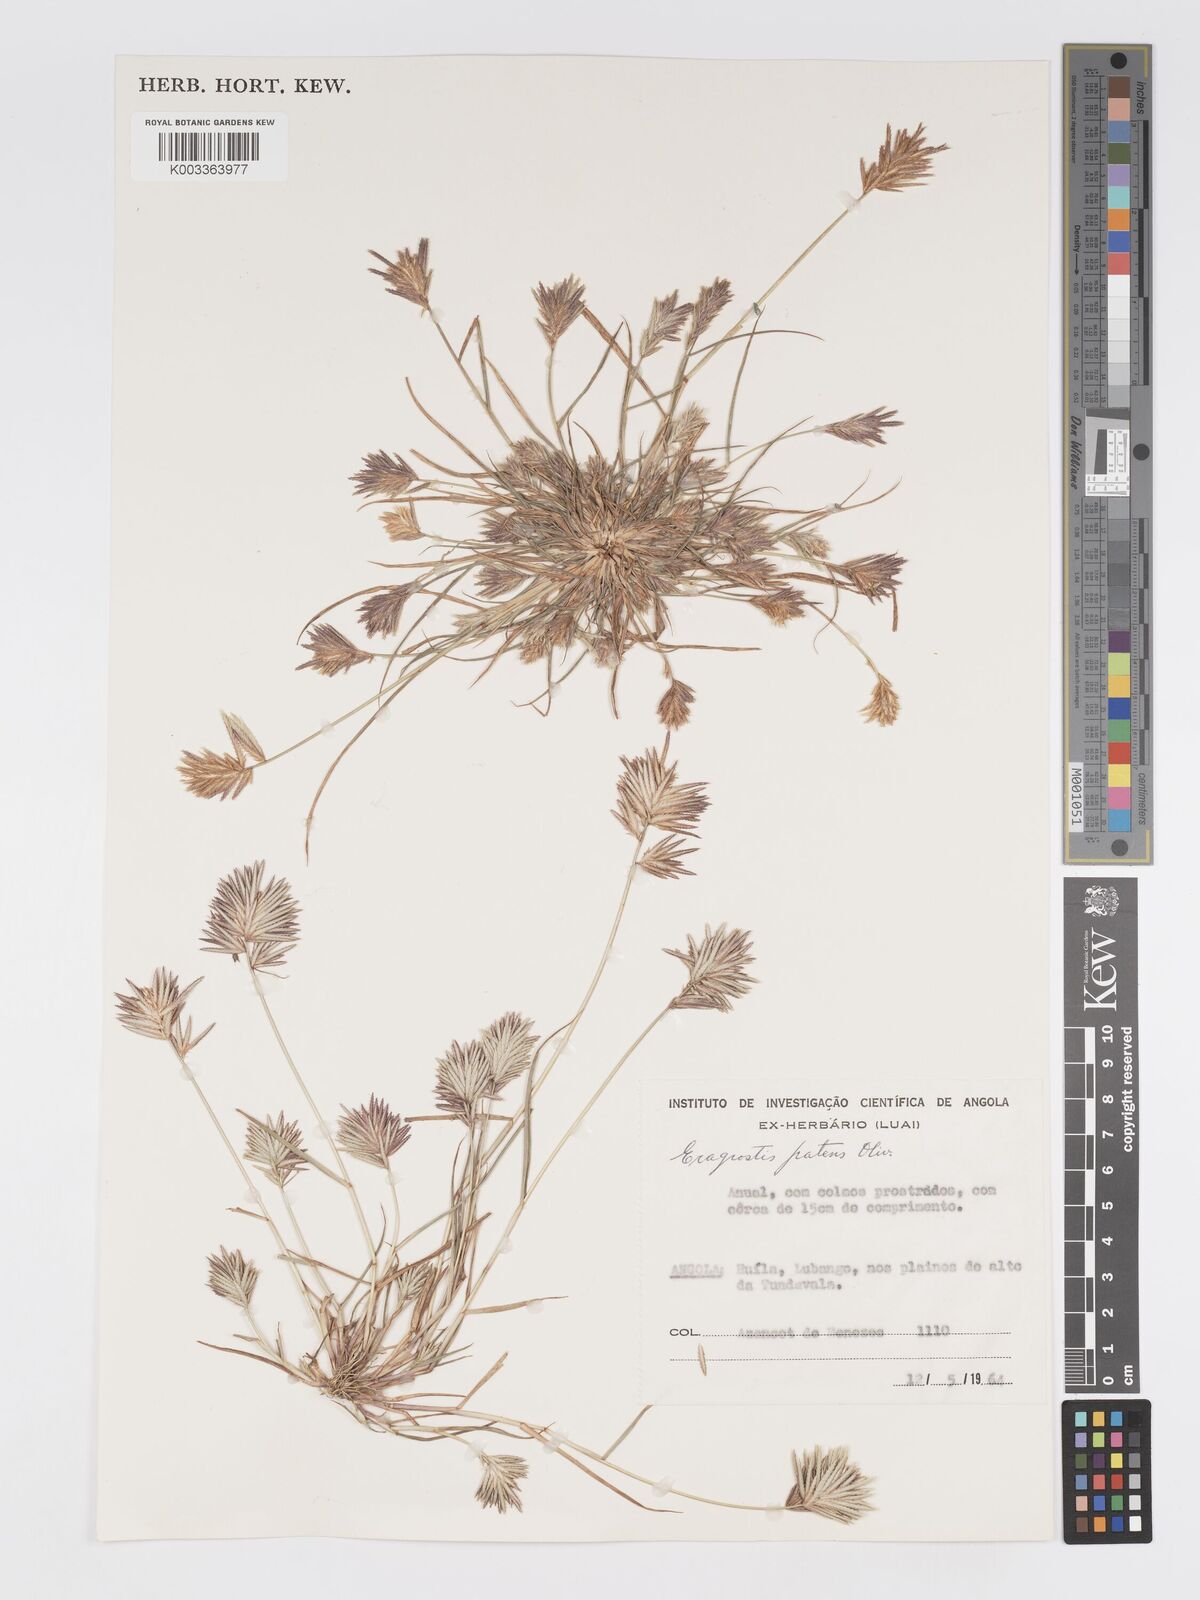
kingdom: Plantae
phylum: Tracheophyta
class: Liliopsida
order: Poales
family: Poaceae
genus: Eragrostis
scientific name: Eragrostis patens
